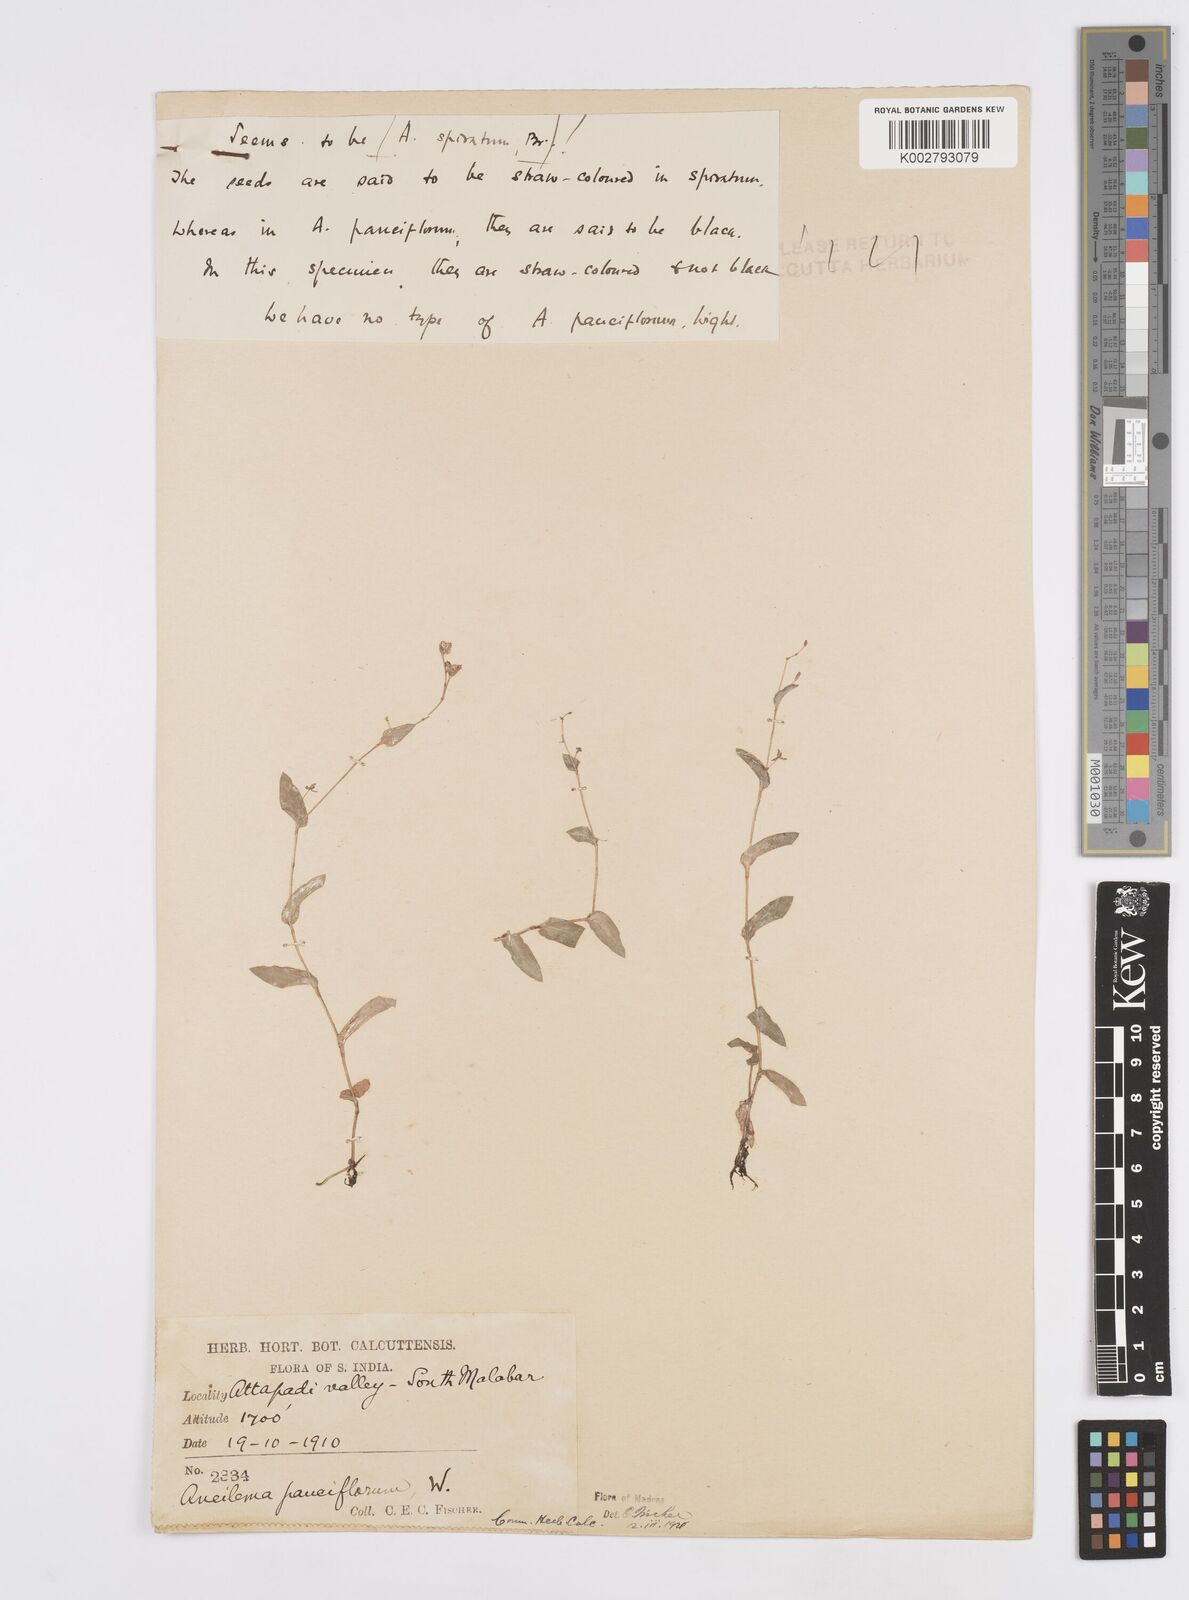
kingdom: Plantae
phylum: Tracheophyta
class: Liliopsida
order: Commelinales
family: Commelinaceae
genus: Murdannia
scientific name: Murdannia spirata
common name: Asiatic dewflower
